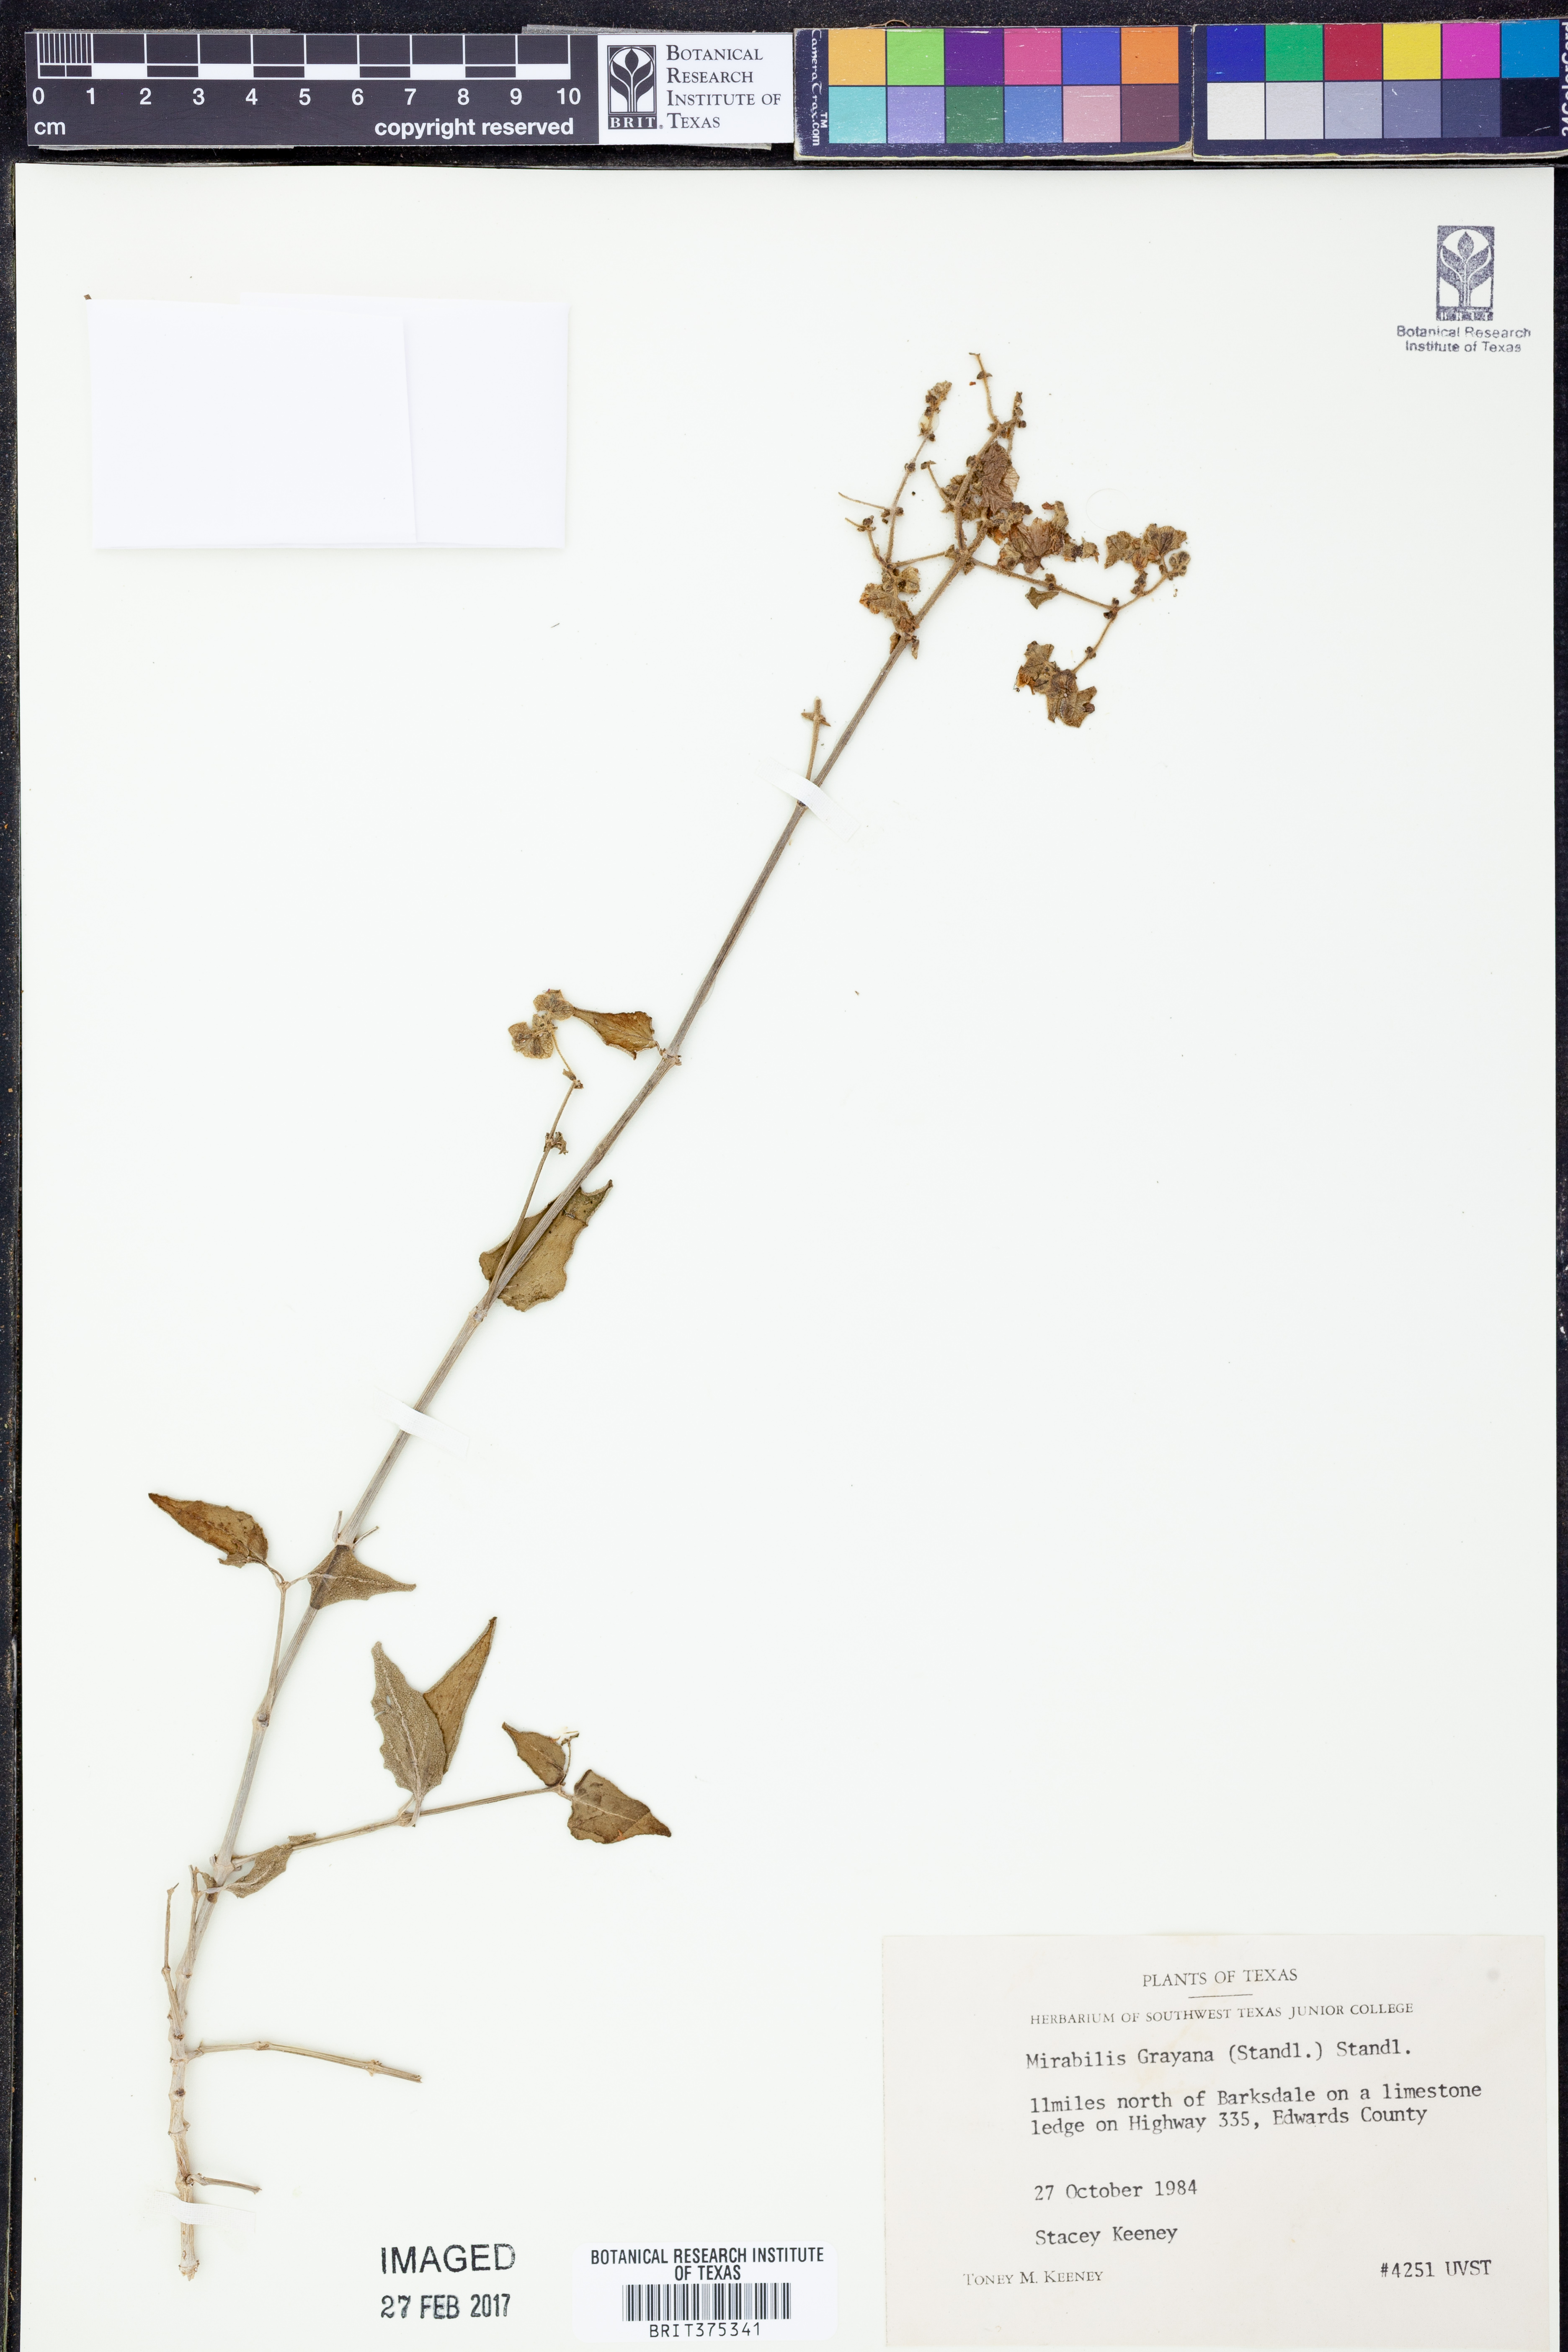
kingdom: Plantae
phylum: Tracheophyta
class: Magnoliopsida
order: Caryophyllales
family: Nyctaginaceae
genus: Mirabilis
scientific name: Mirabilis albida
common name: Hairy four-o'clock
